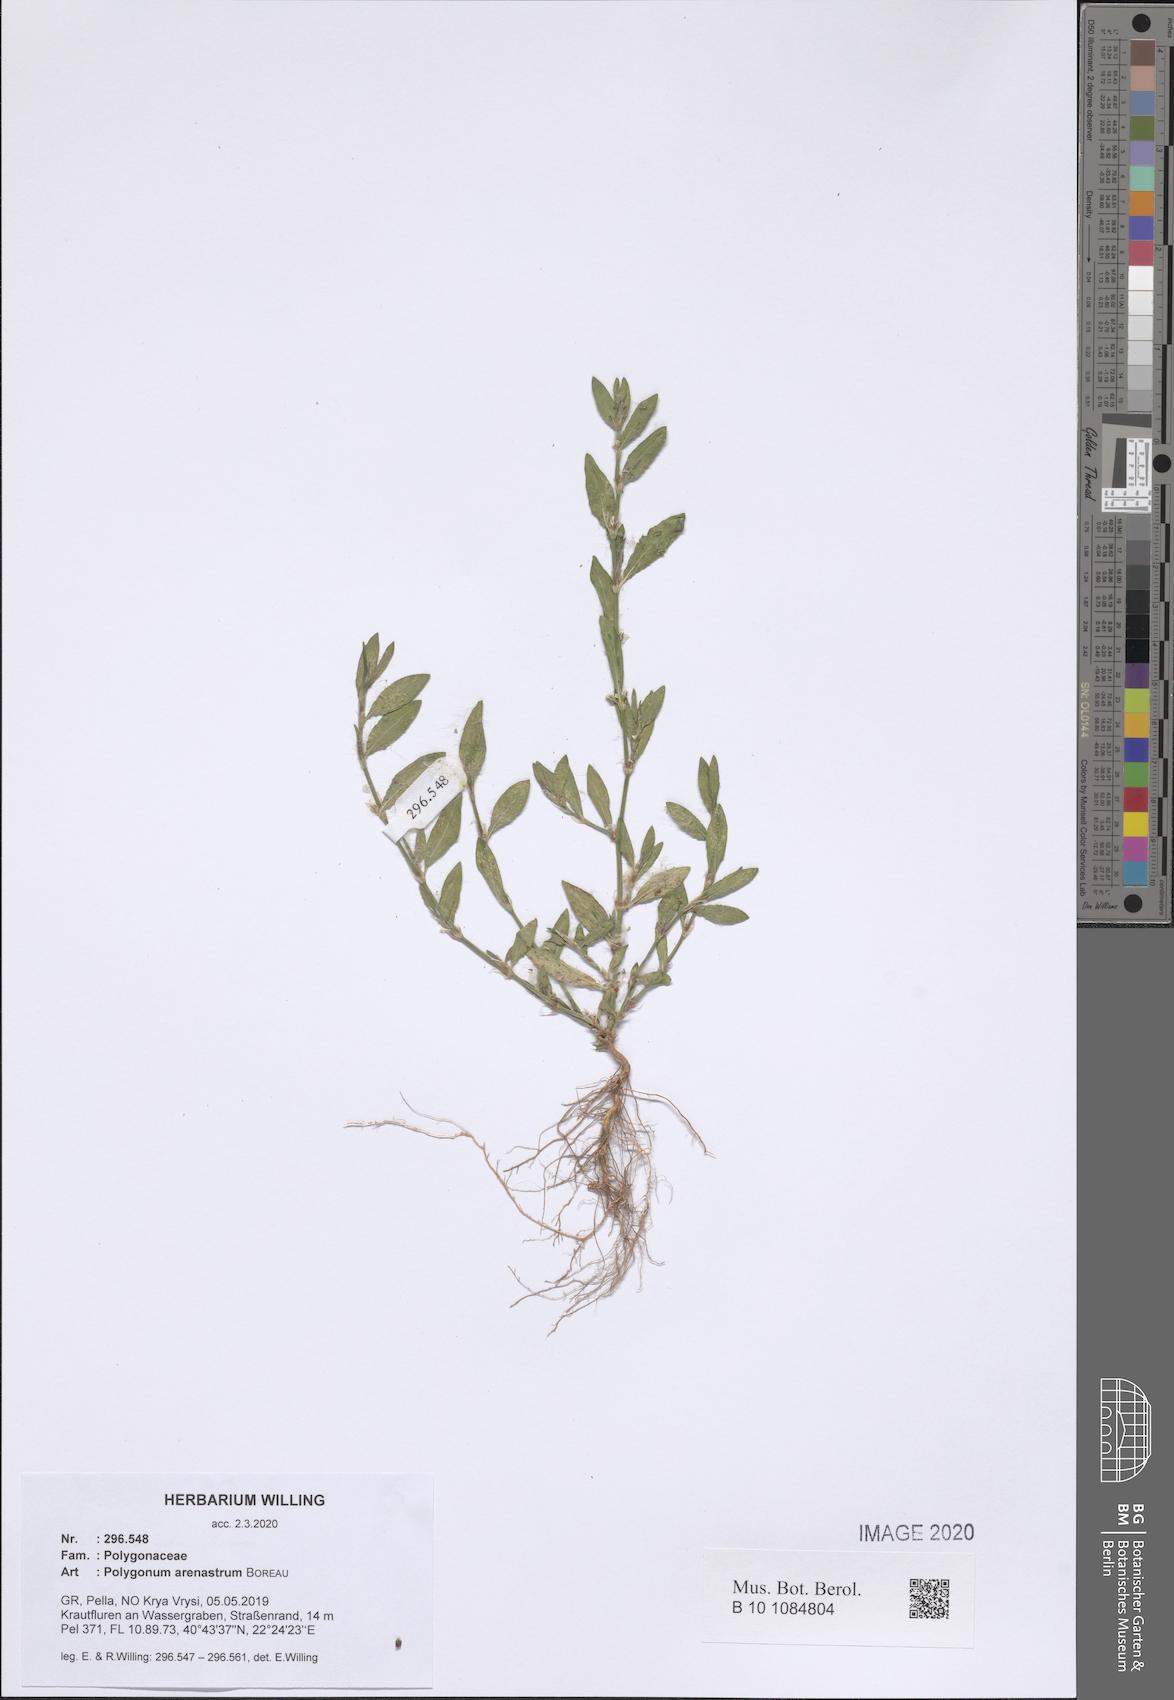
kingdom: Plantae
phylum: Tracheophyta
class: Magnoliopsida
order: Caryophyllales
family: Polygonaceae
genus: Polygonum
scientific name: Polygonum arenastrum
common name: Equal-leaved knotgrass
